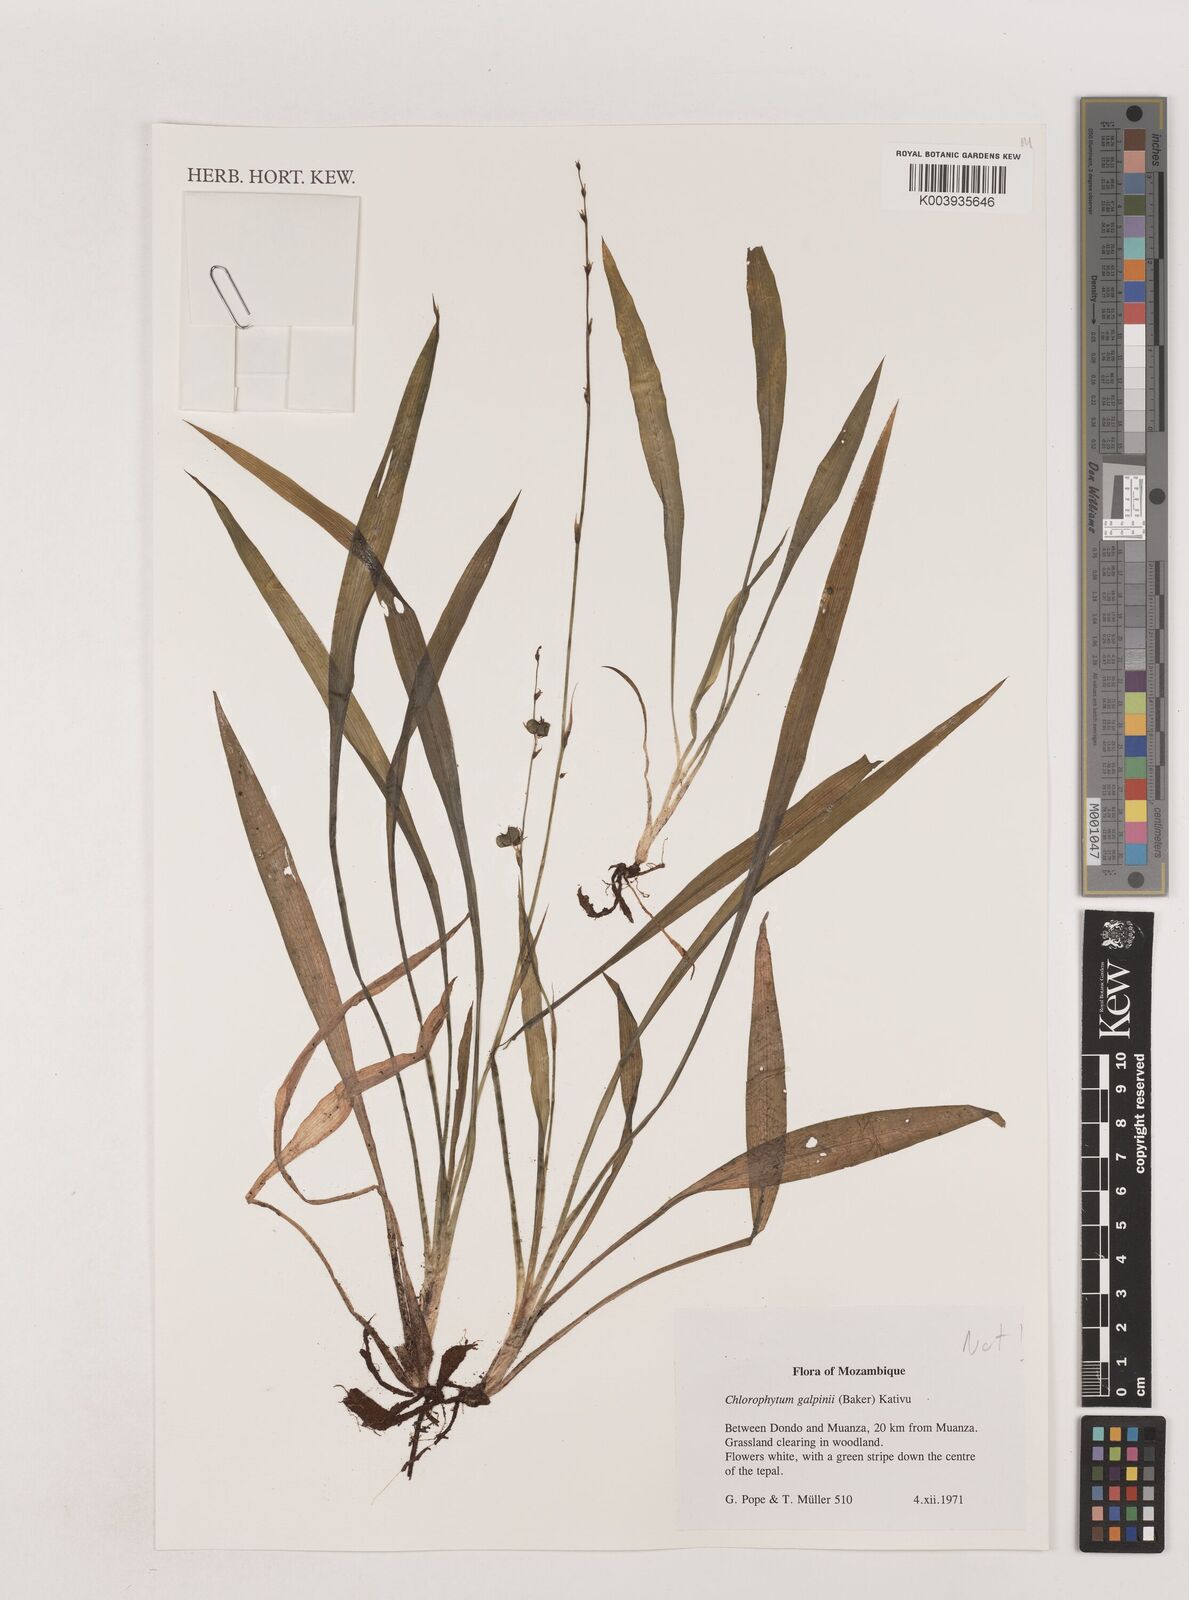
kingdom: Plantae
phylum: Tracheophyta
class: Liliopsida
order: Asparagales
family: Asparagaceae
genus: Chlorophytum
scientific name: Chlorophytum
